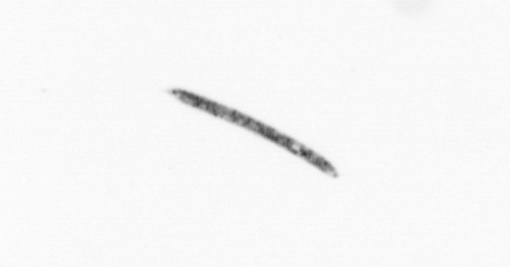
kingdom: Chromista
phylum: Ochrophyta
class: Bacillariophyceae
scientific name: Bacillariophyceae
